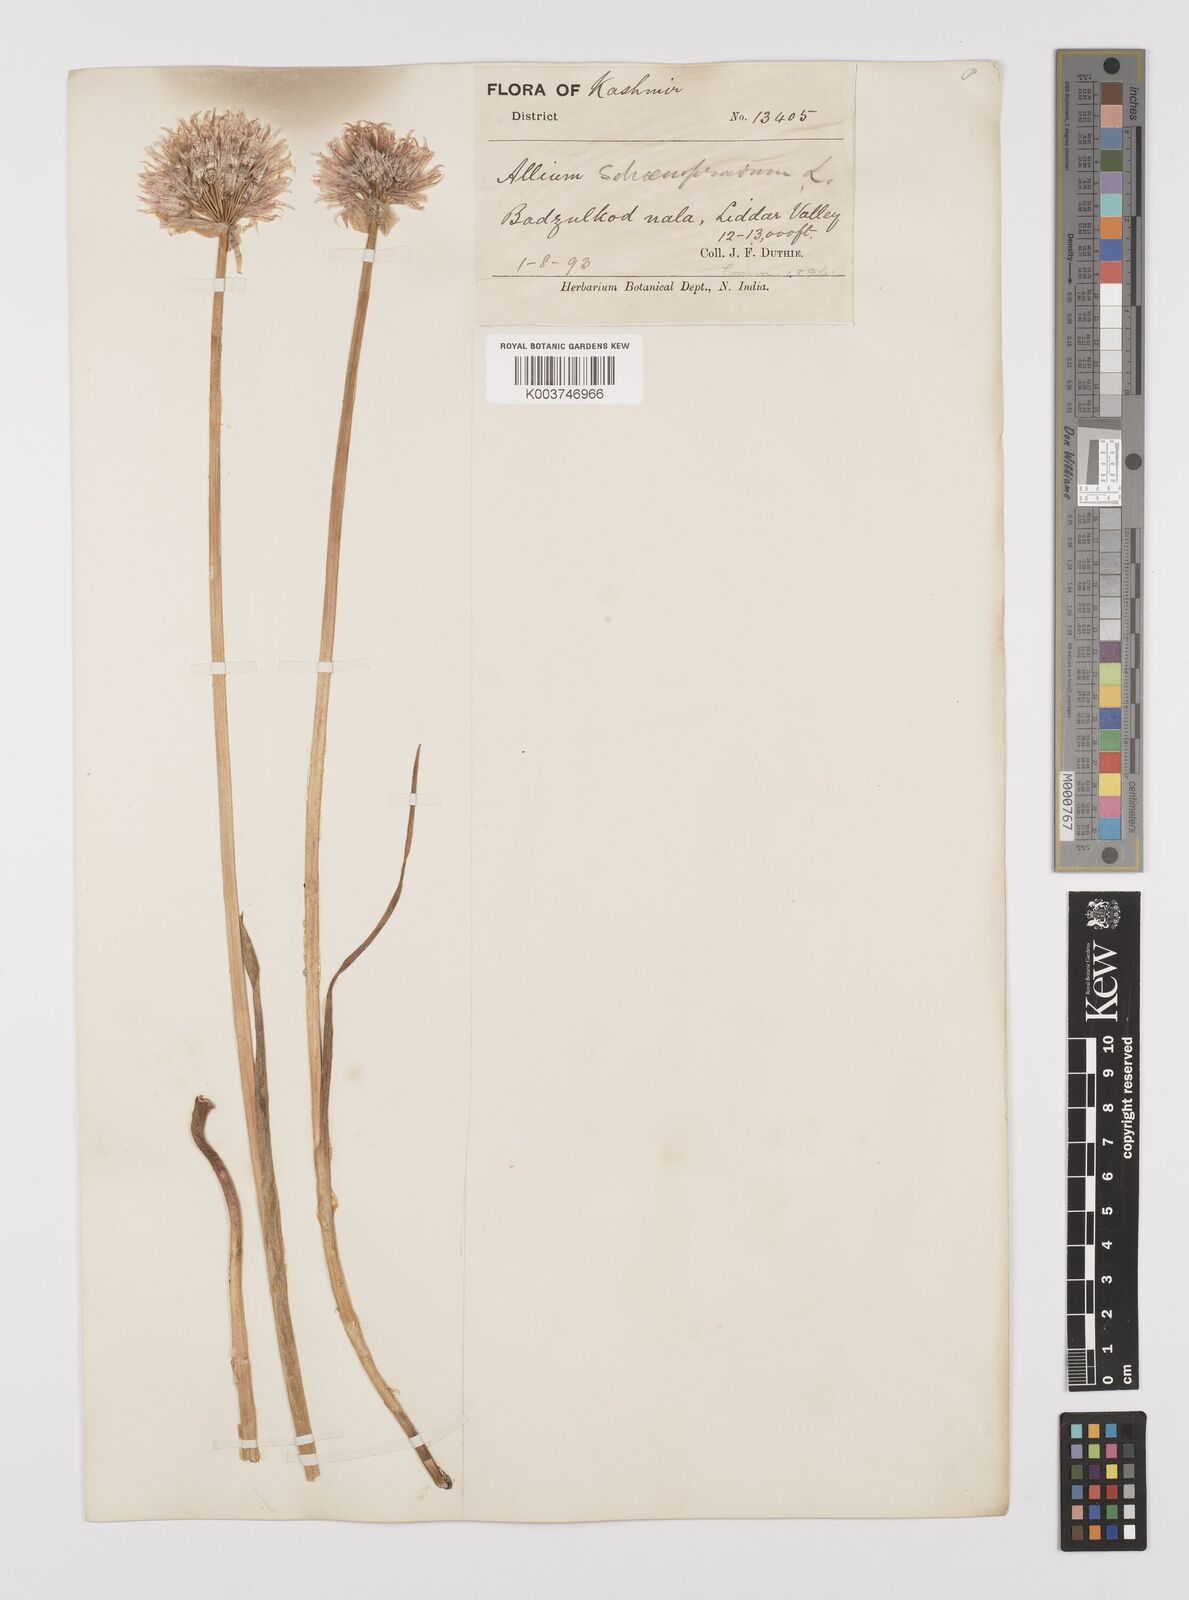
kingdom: Plantae
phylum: Tracheophyta
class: Liliopsida
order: Asparagales
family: Amaryllidaceae
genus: Allium
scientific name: Allium schoenoprasum
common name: Chives
